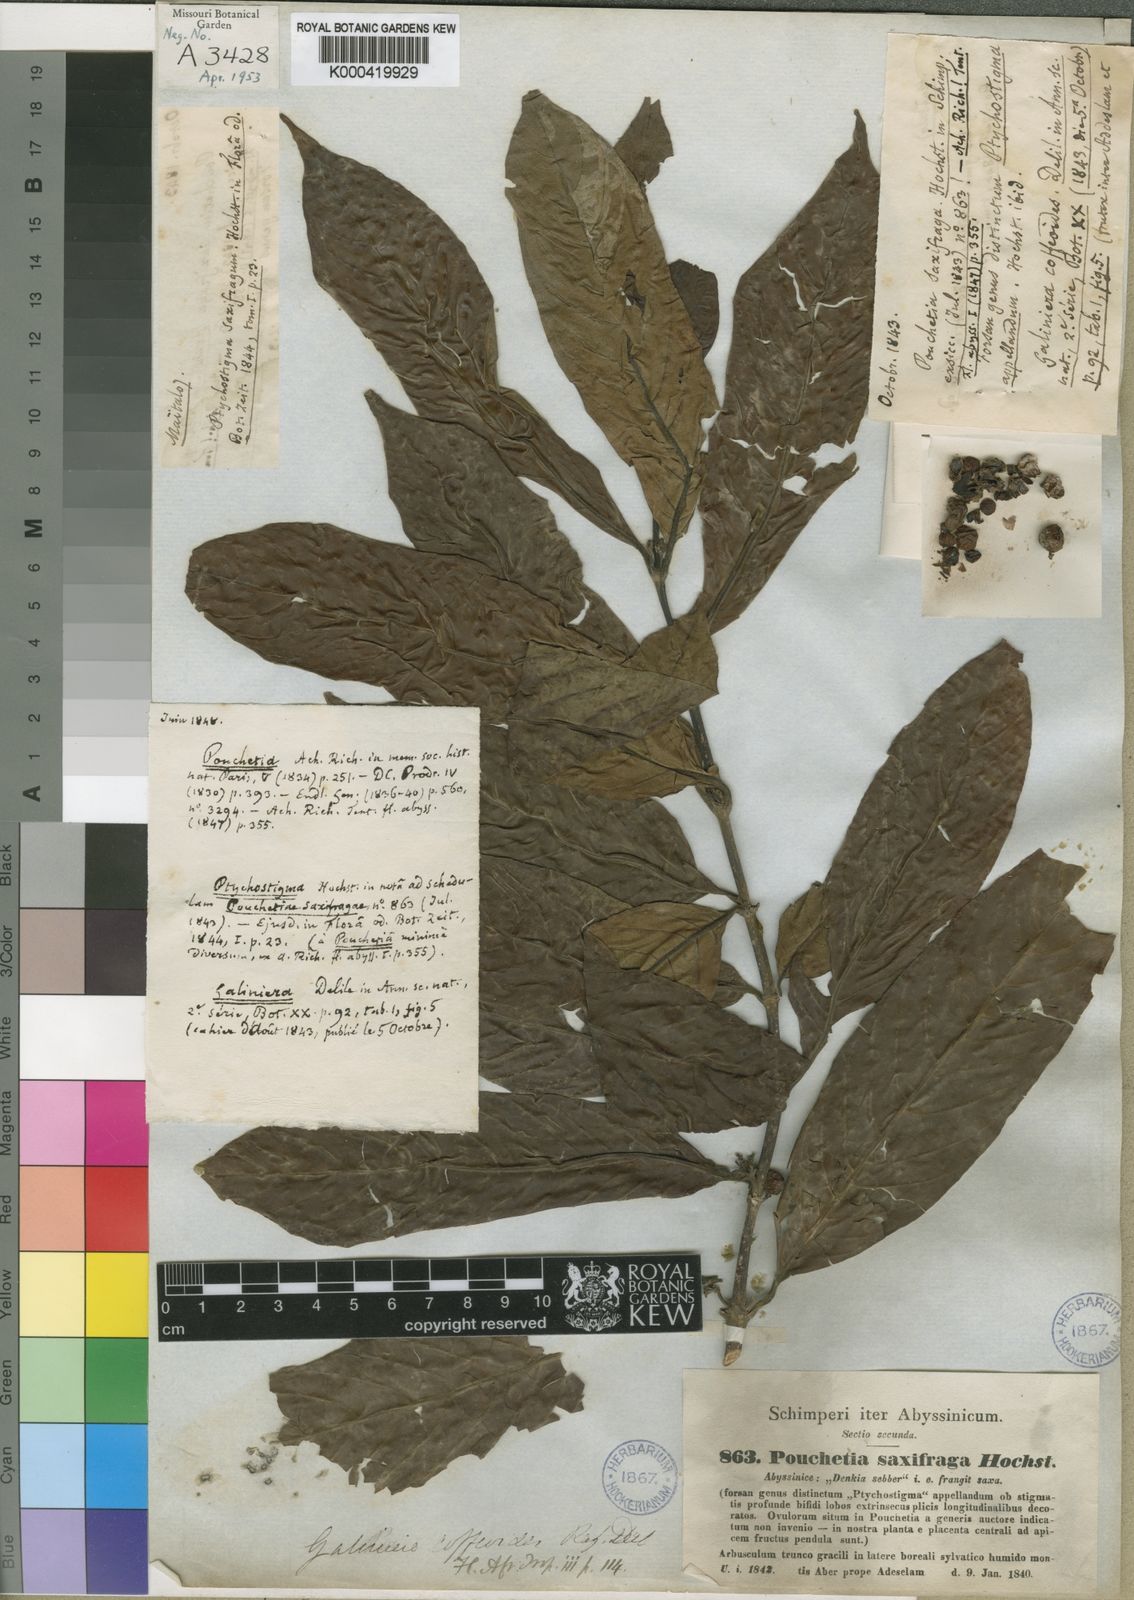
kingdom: Plantae
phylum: Tracheophyta
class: Magnoliopsida
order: Gentianales
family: Rubiaceae
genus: Galiniera
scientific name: Galiniera saxifraga
